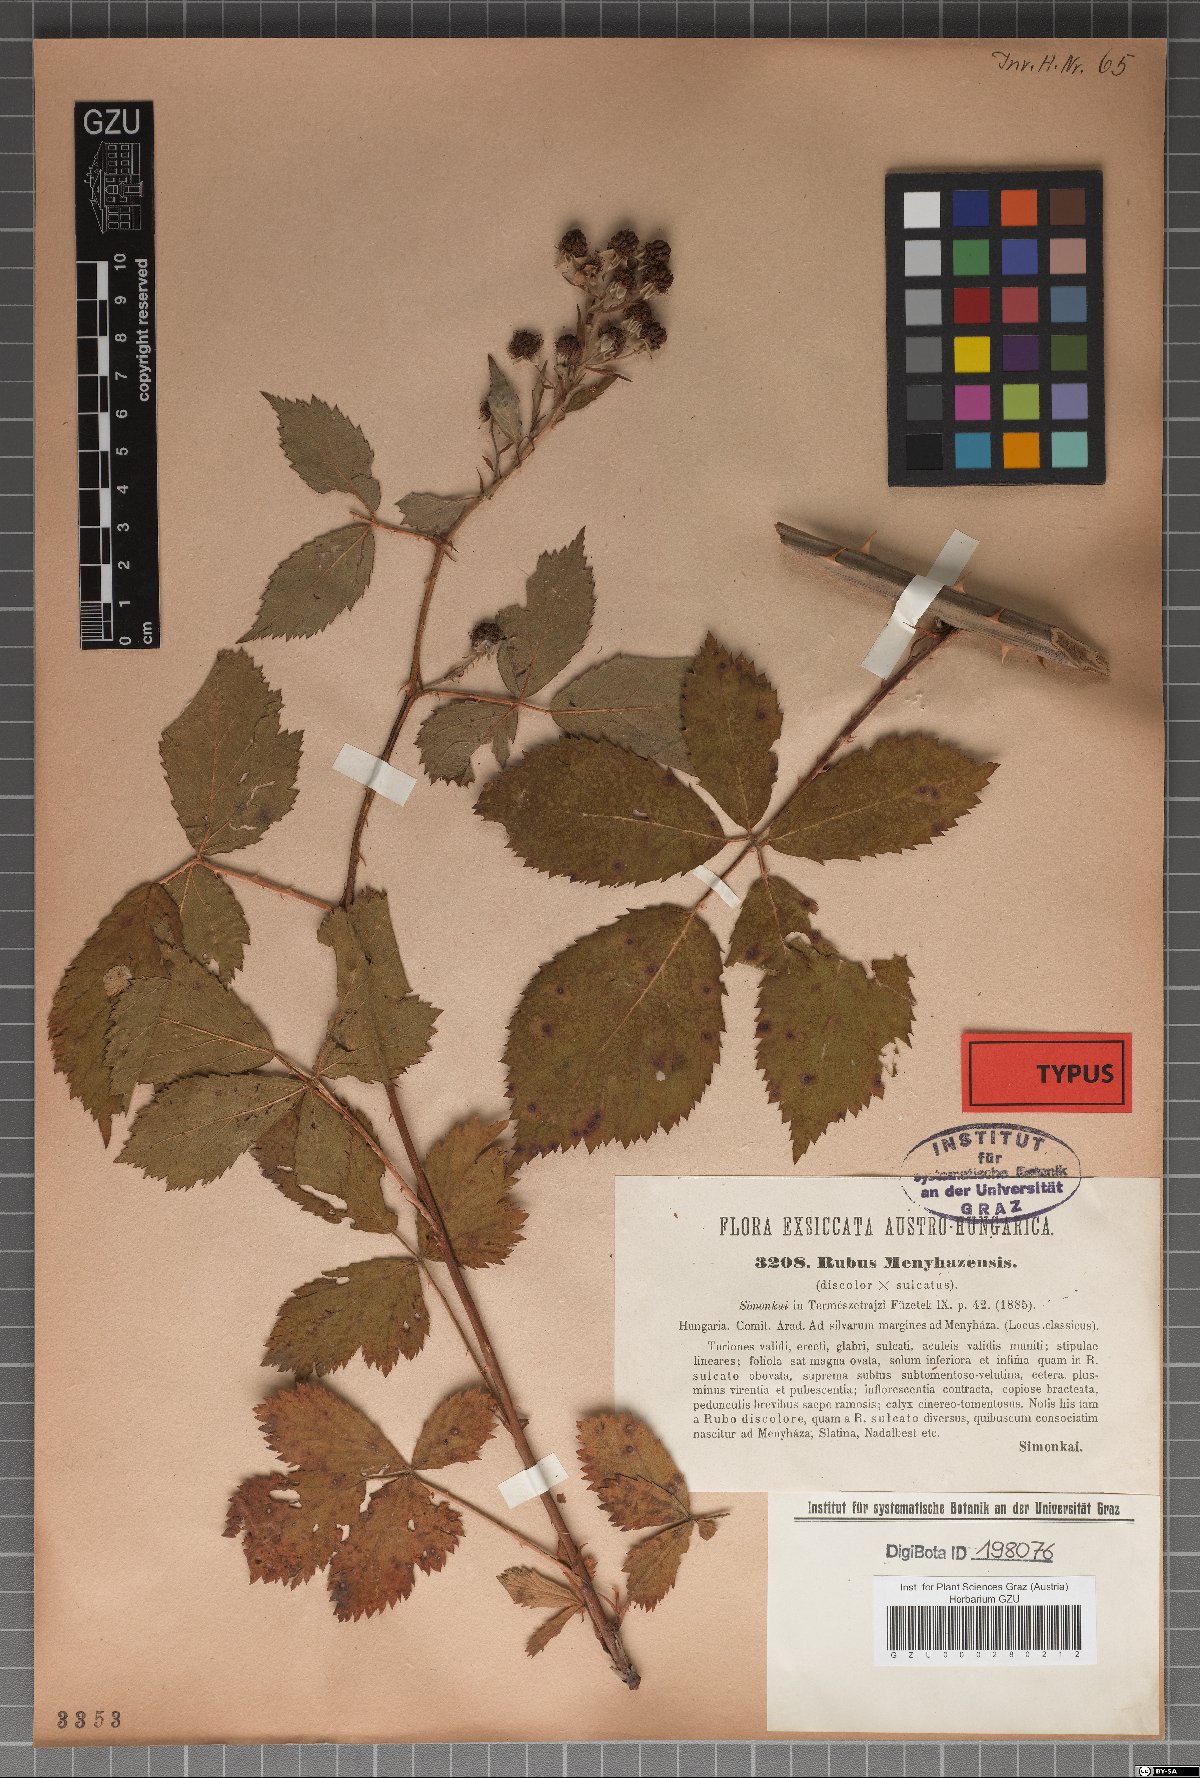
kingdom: Plantae
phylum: Tracheophyta
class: Magnoliopsida
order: Rosales
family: Rosaceae
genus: Rubus
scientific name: Rubus constrictus
